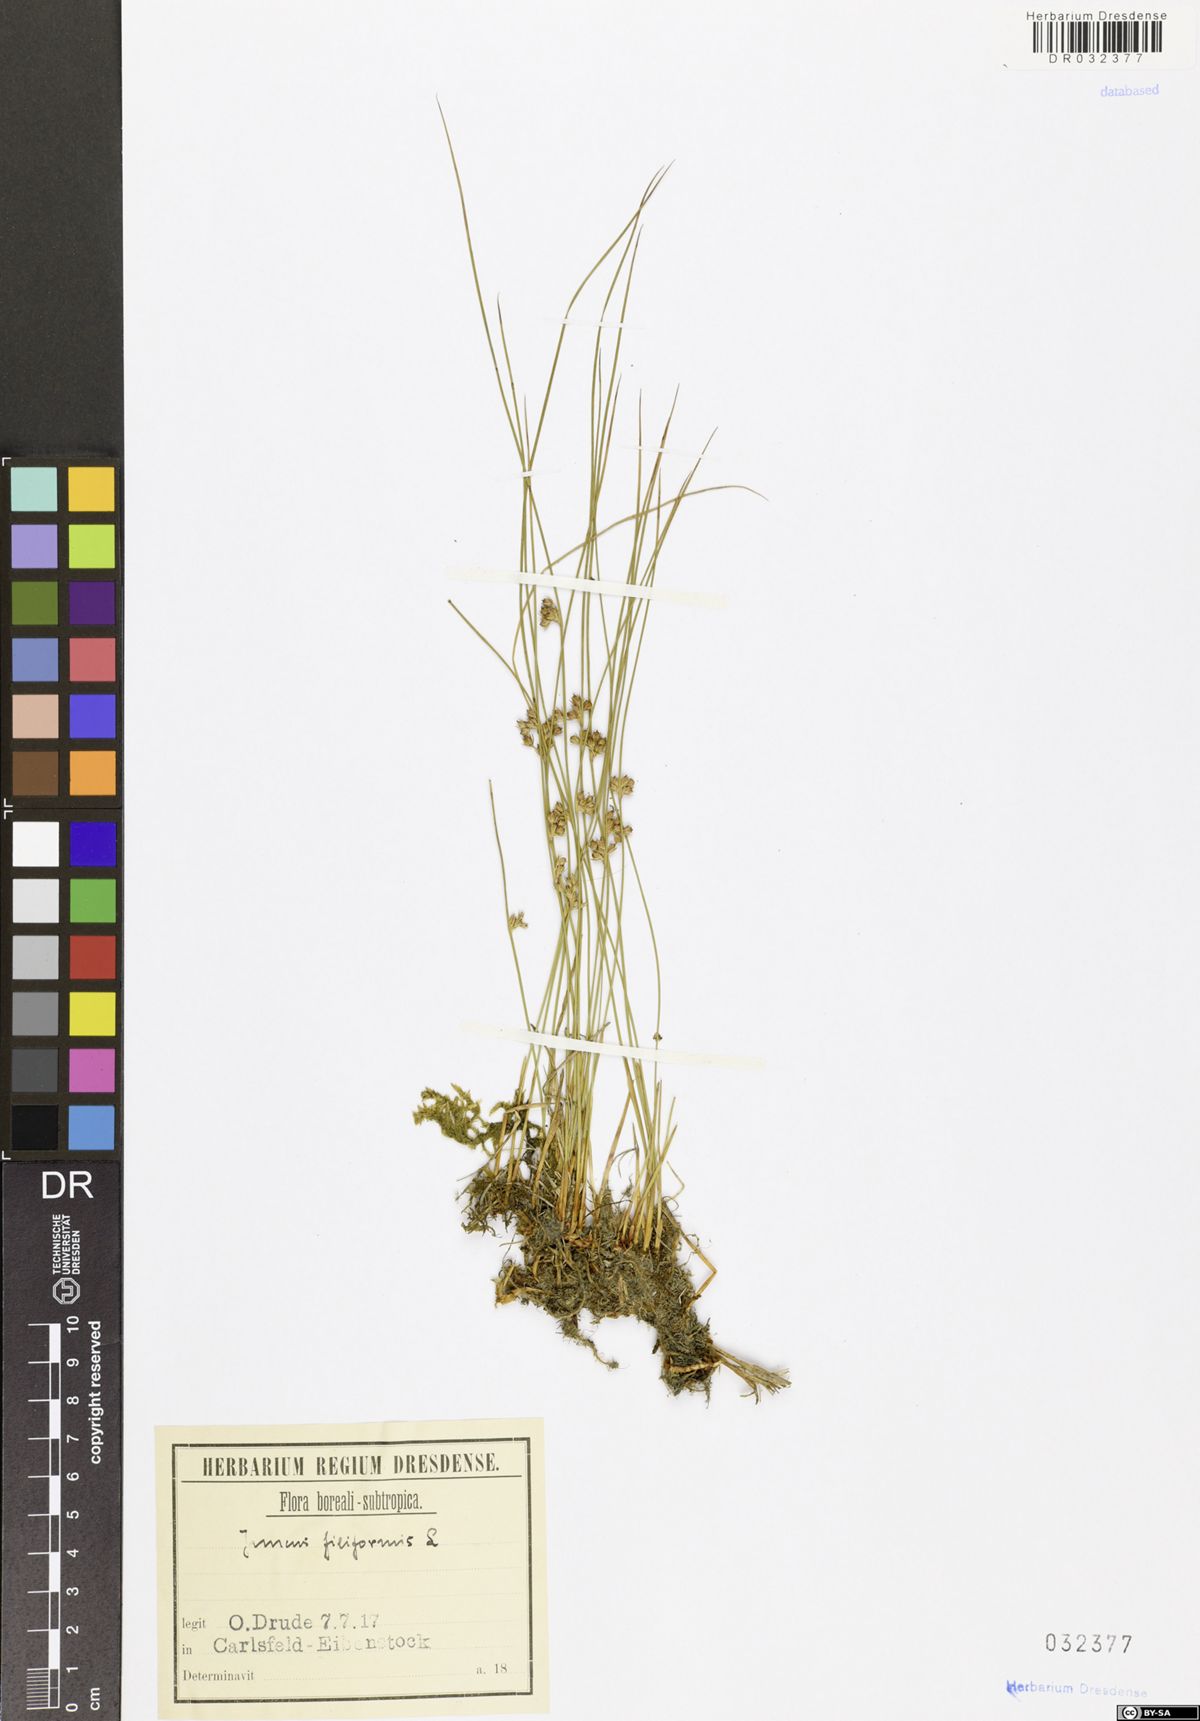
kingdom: Plantae
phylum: Tracheophyta
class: Liliopsida
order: Poales
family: Juncaceae
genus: Juncus
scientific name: Juncus inflexus
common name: Hard rush
